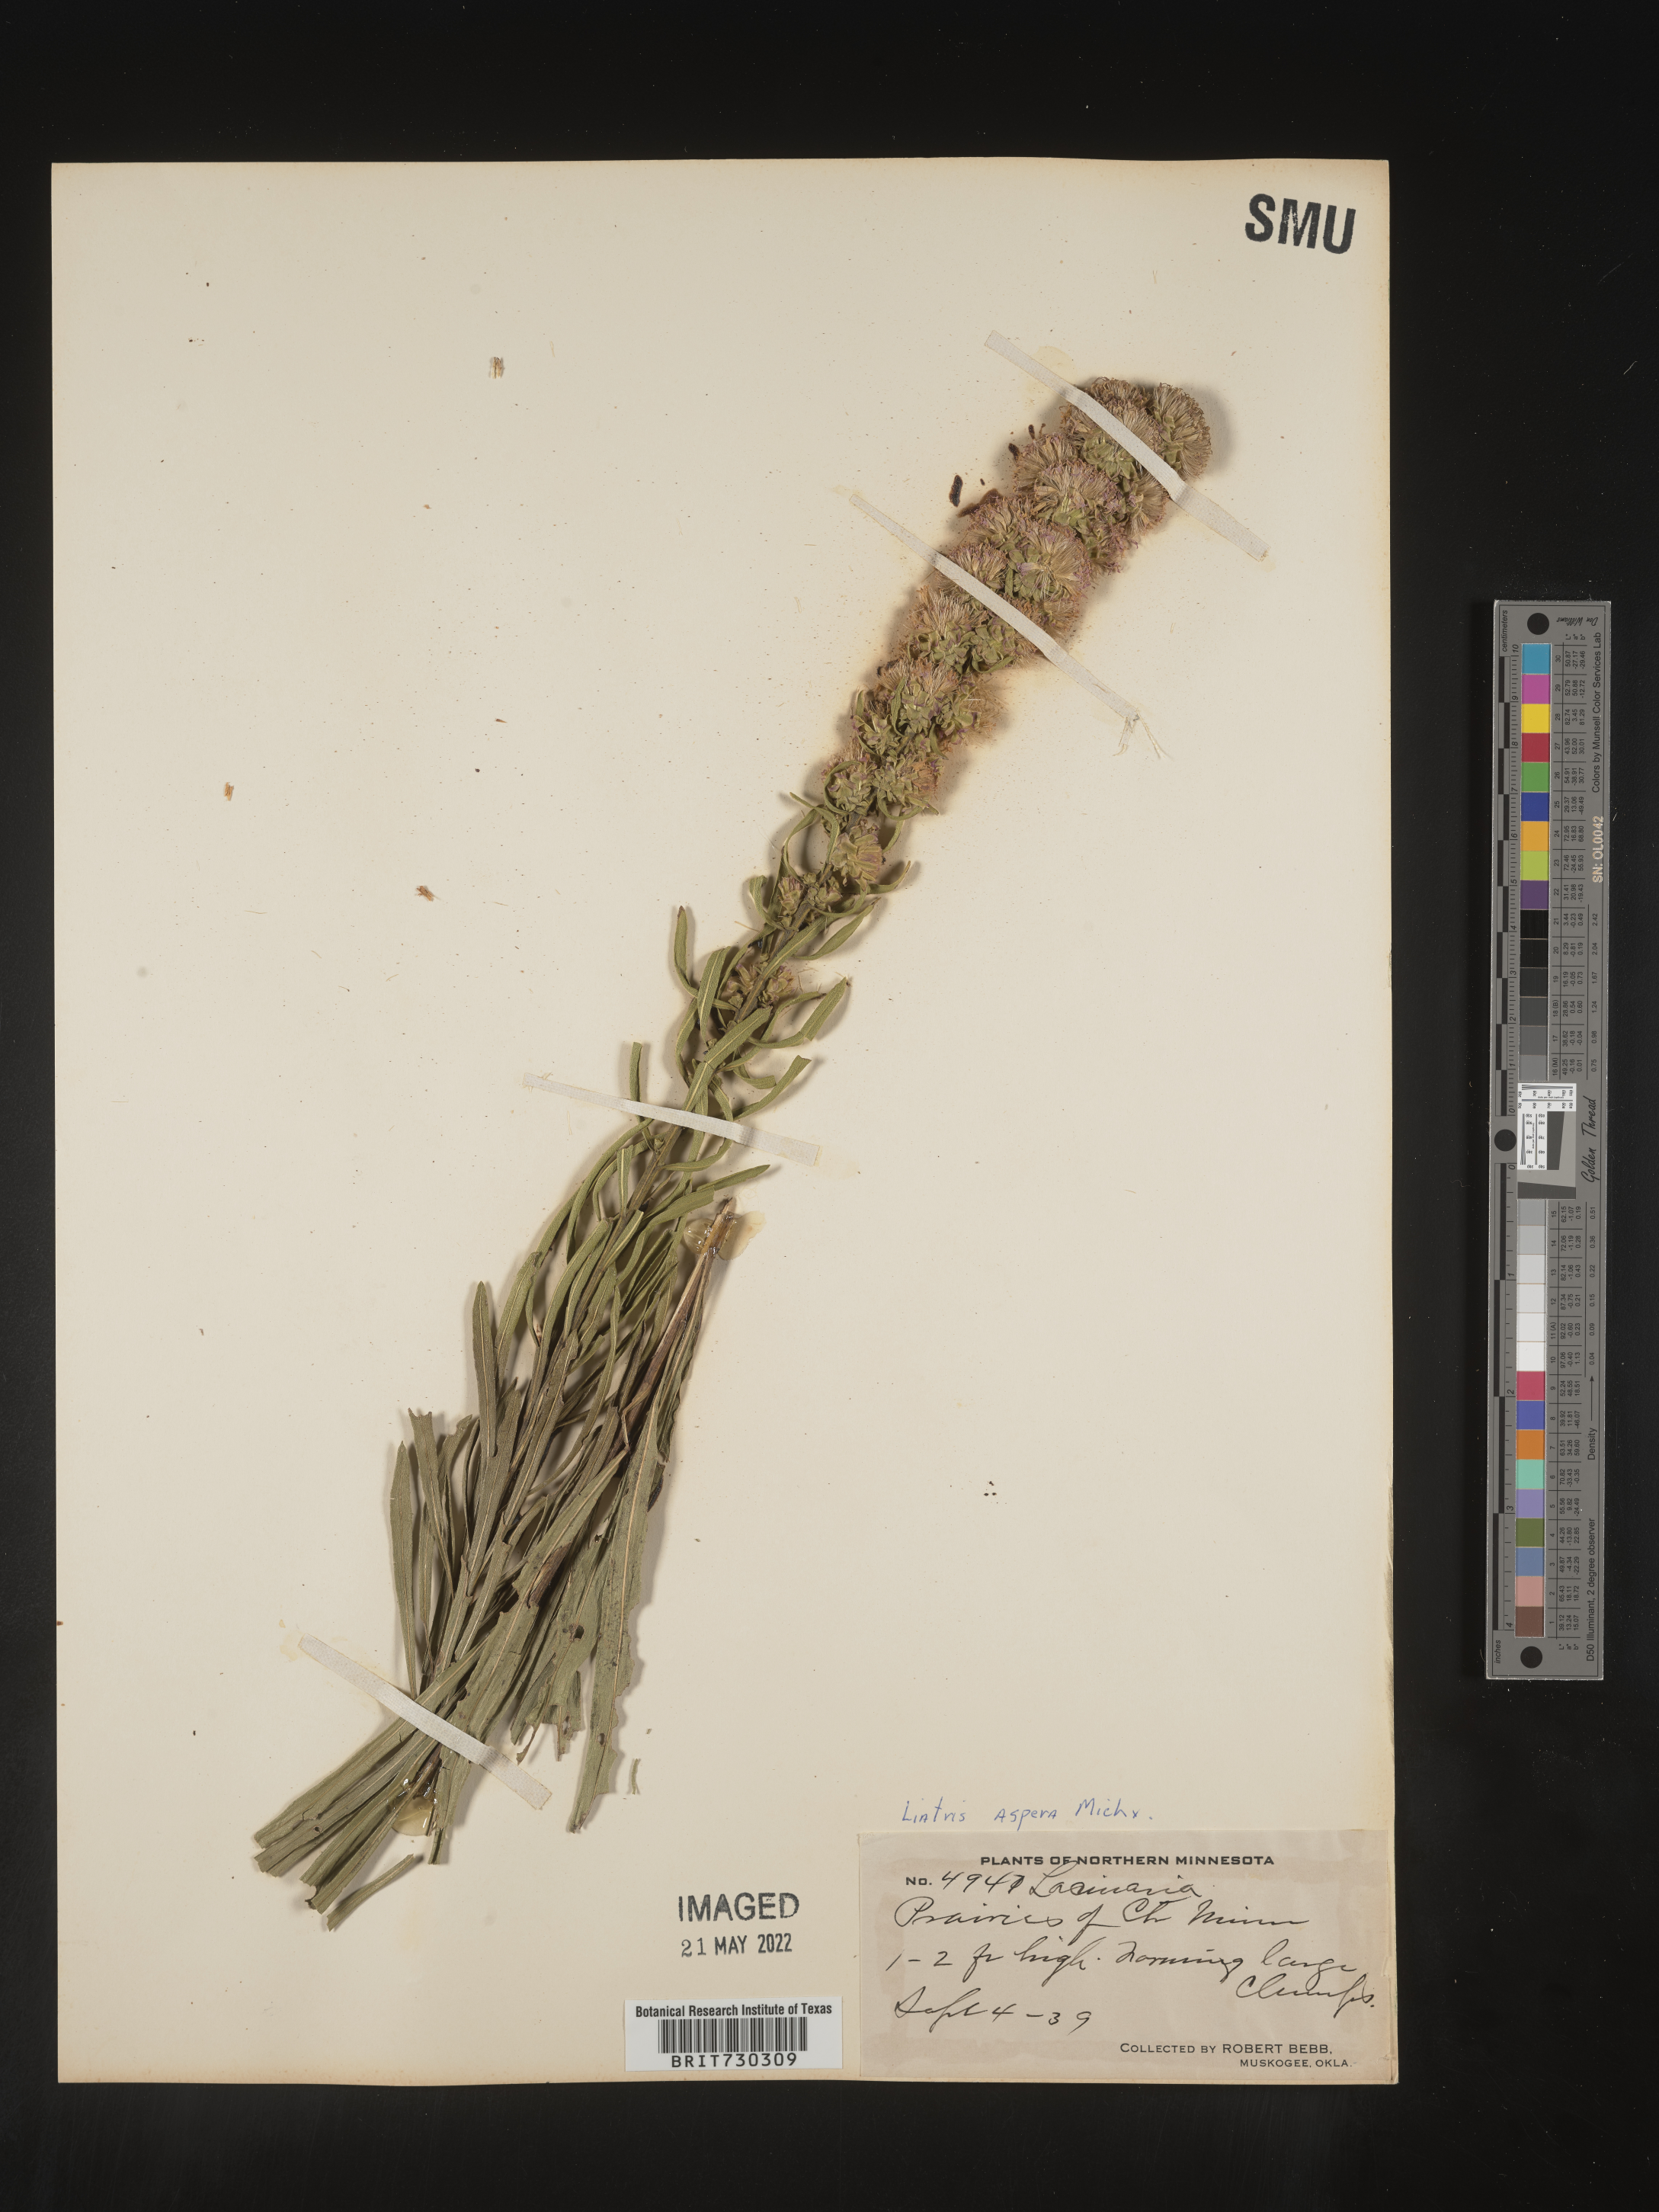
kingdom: Plantae
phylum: Tracheophyta
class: Magnoliopsida
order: Asterales
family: Asteraceae
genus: Liatris
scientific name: Liatris aspera
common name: Lacerate blazing-star
